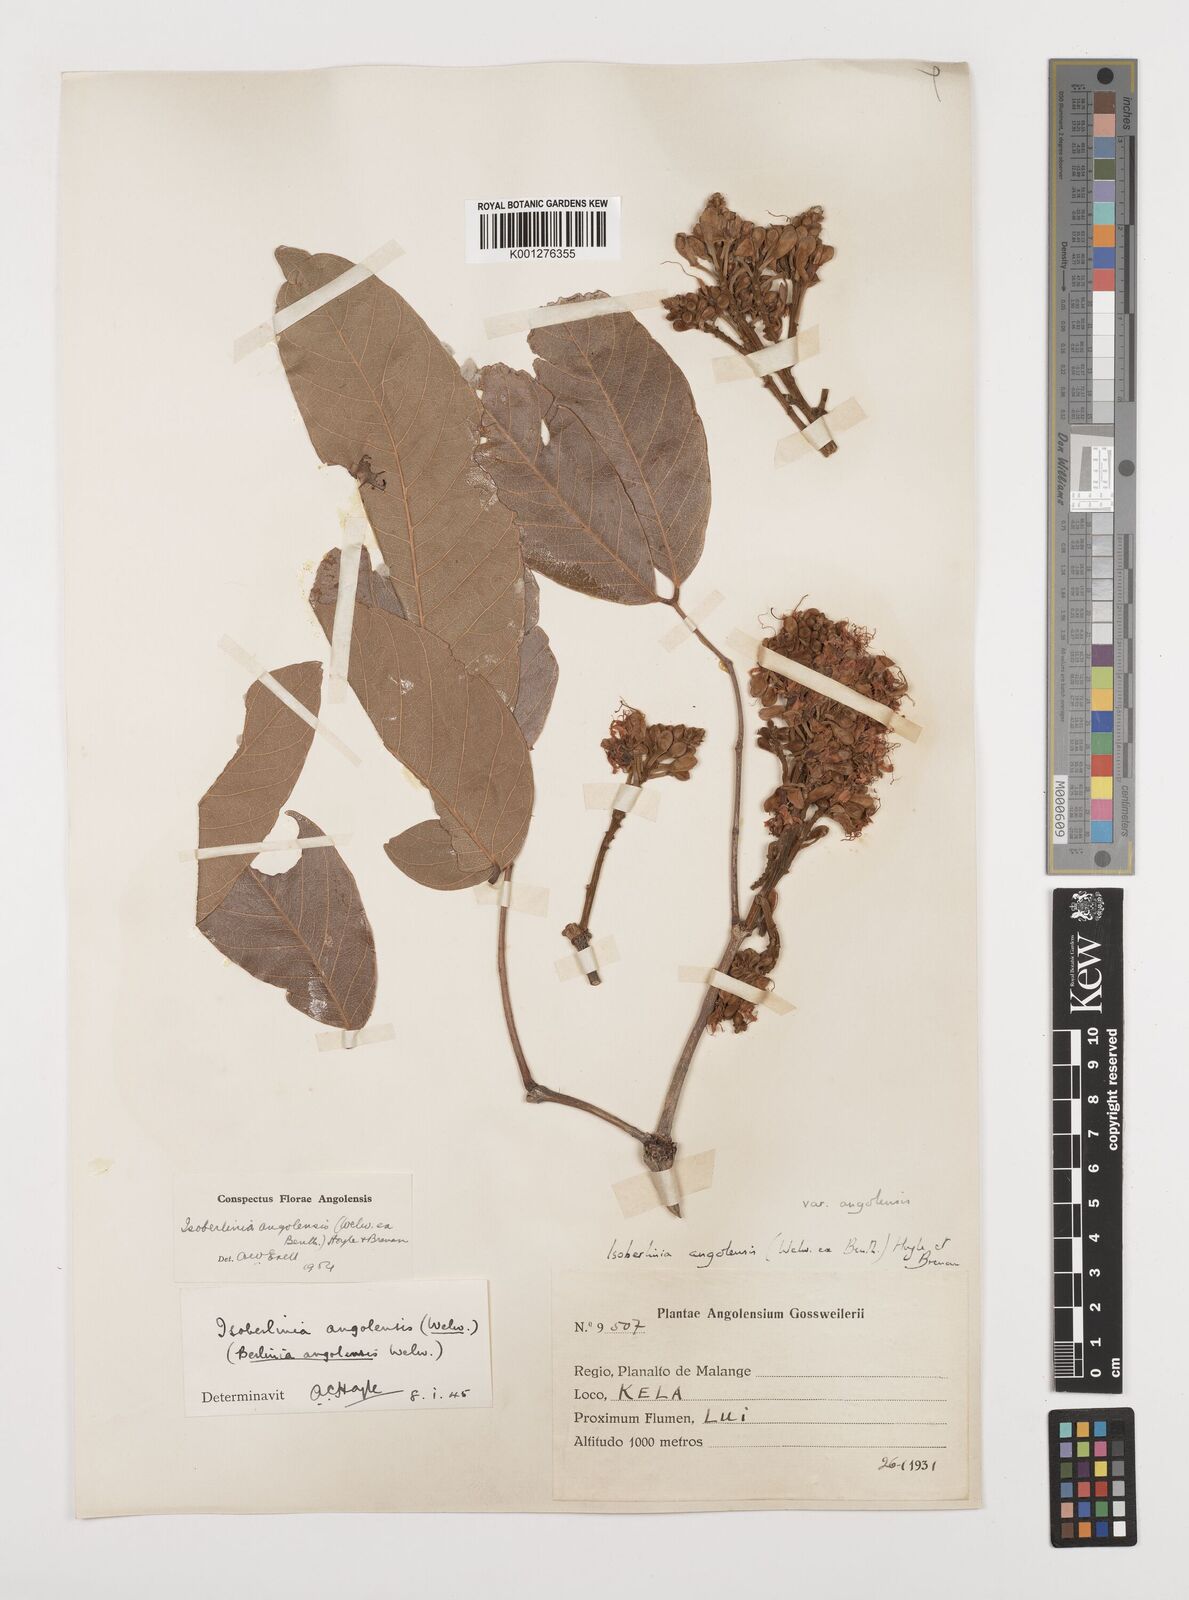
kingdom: Plantae
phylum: Tracheophyta
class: Magnoliopsida
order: Fabales
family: Fabaceae
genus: Isoberlinia
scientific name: Isoberlinia angolensis
